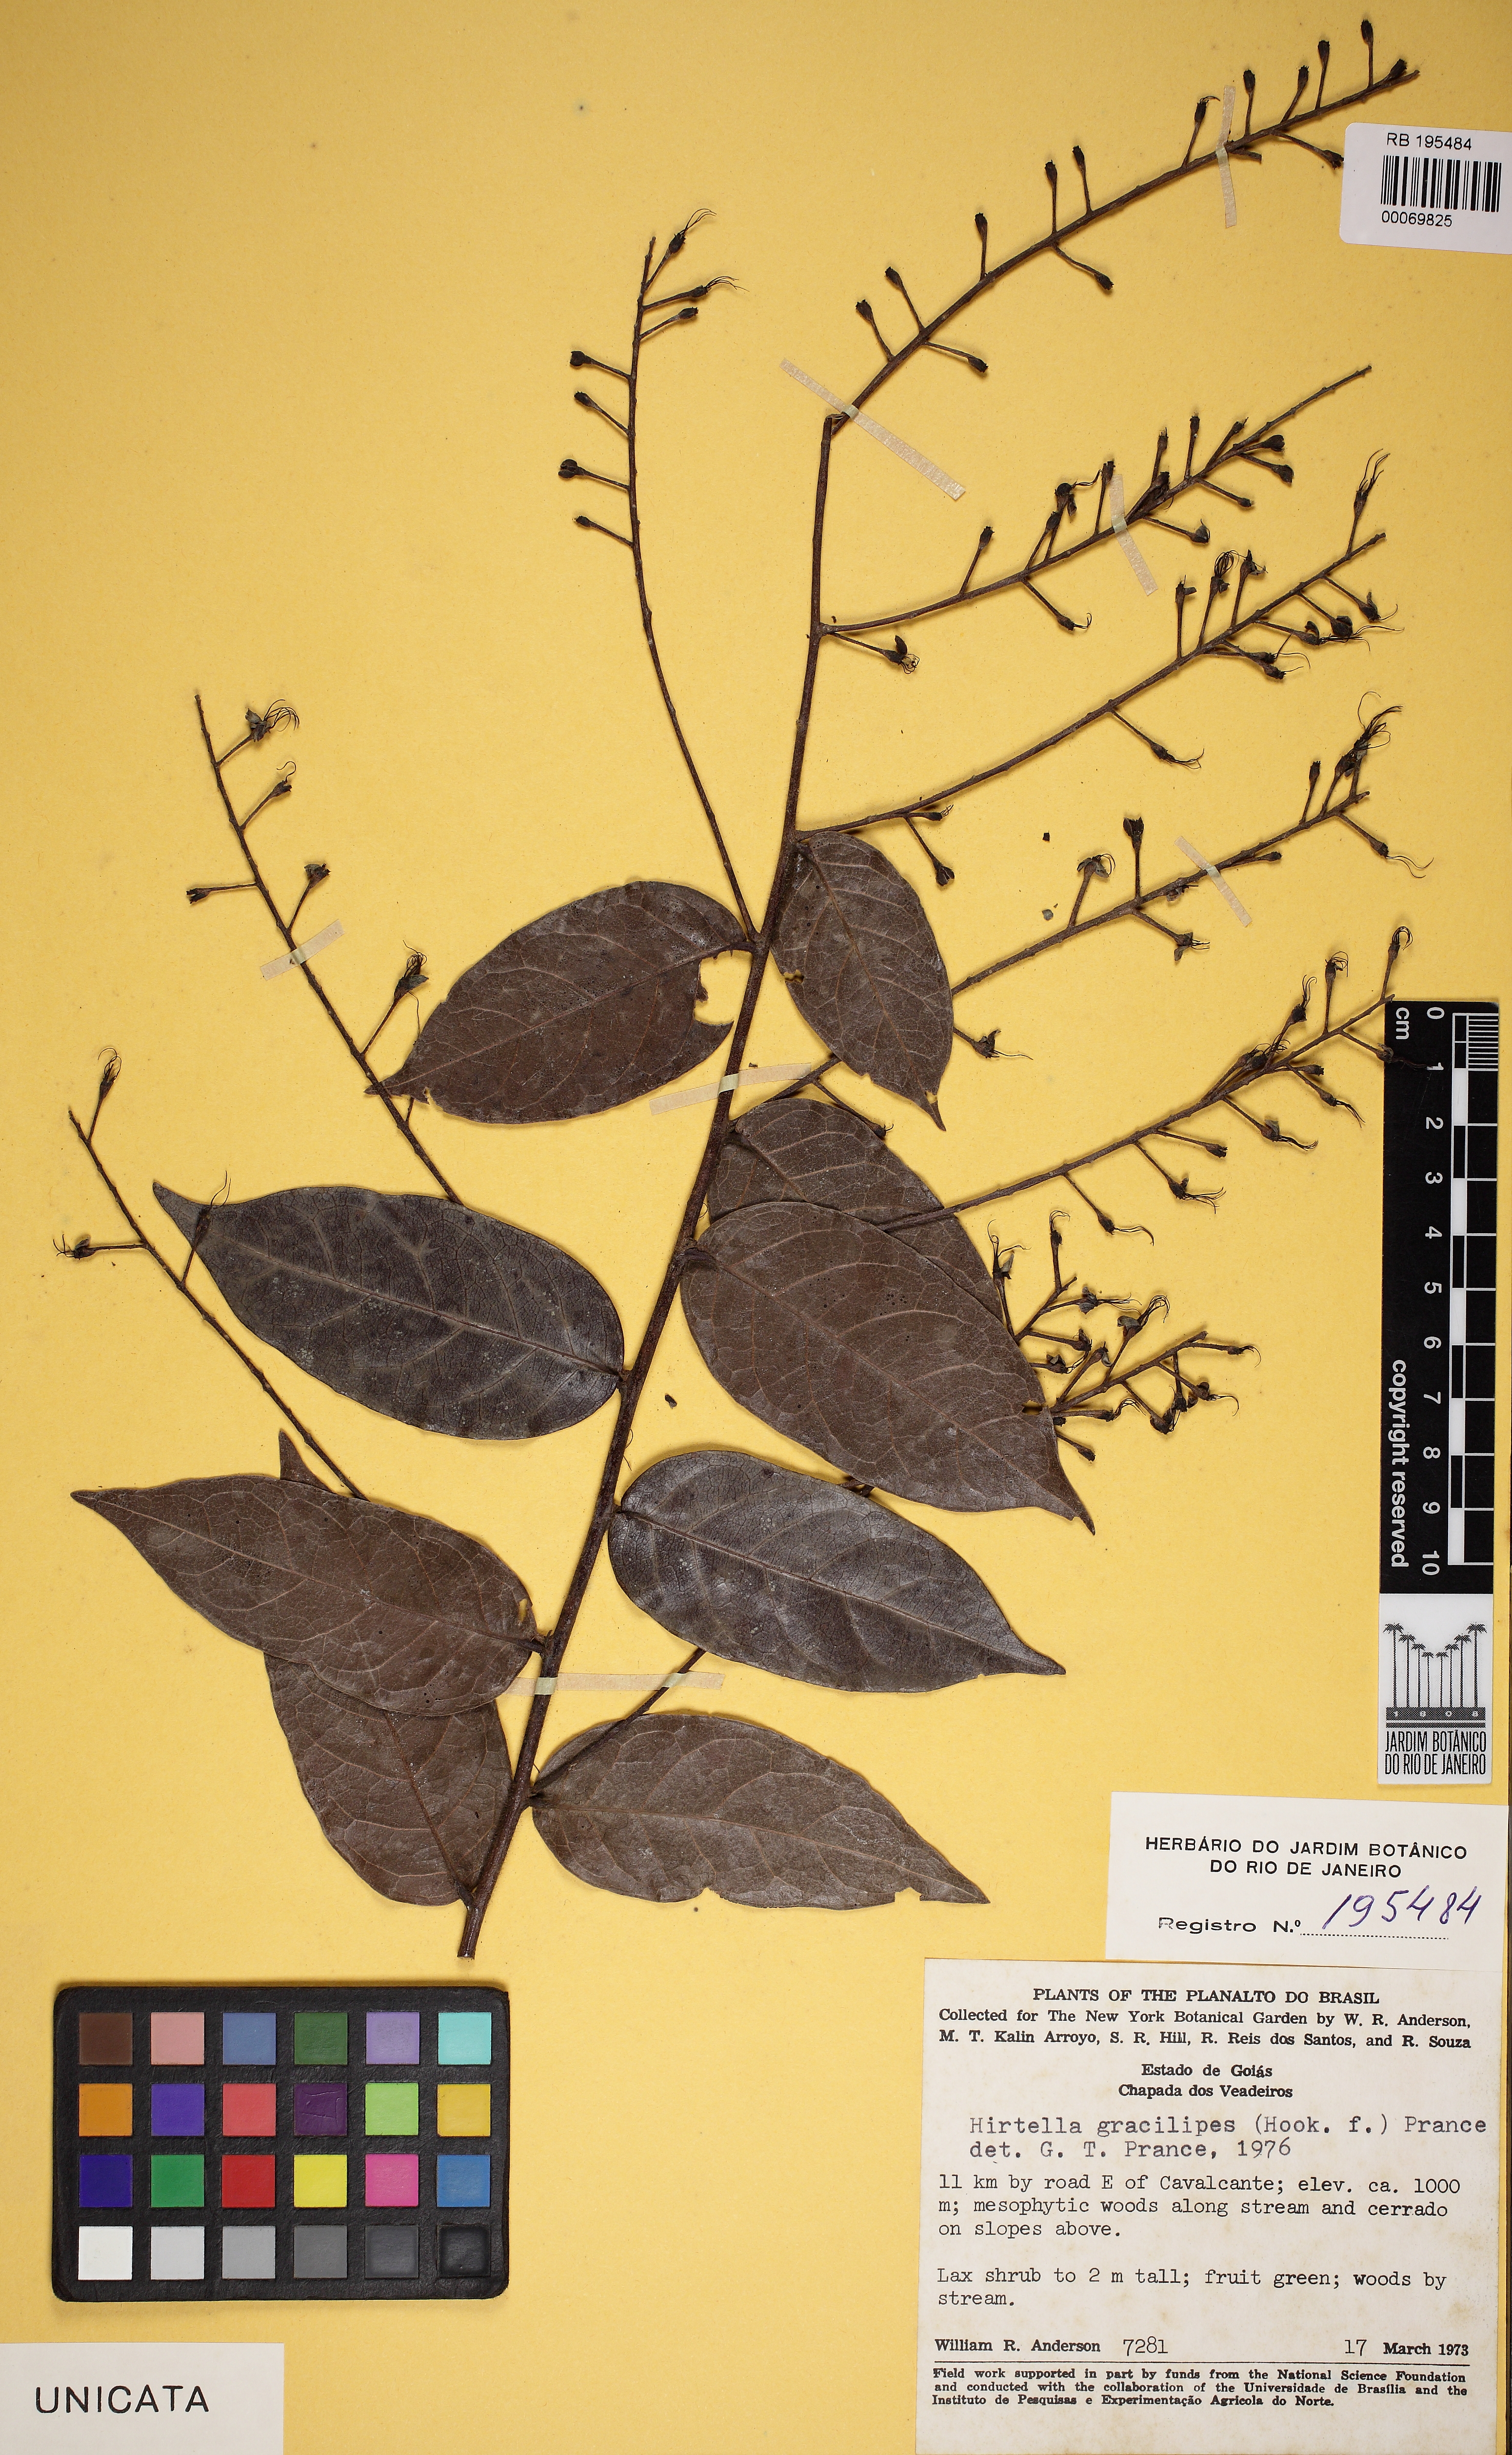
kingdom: Plantae
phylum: Tracheophyta
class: Magnoliopsida
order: Malpighiales
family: Chrysobalanaceae
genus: Hirtella
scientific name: Hirtella gracilipes
